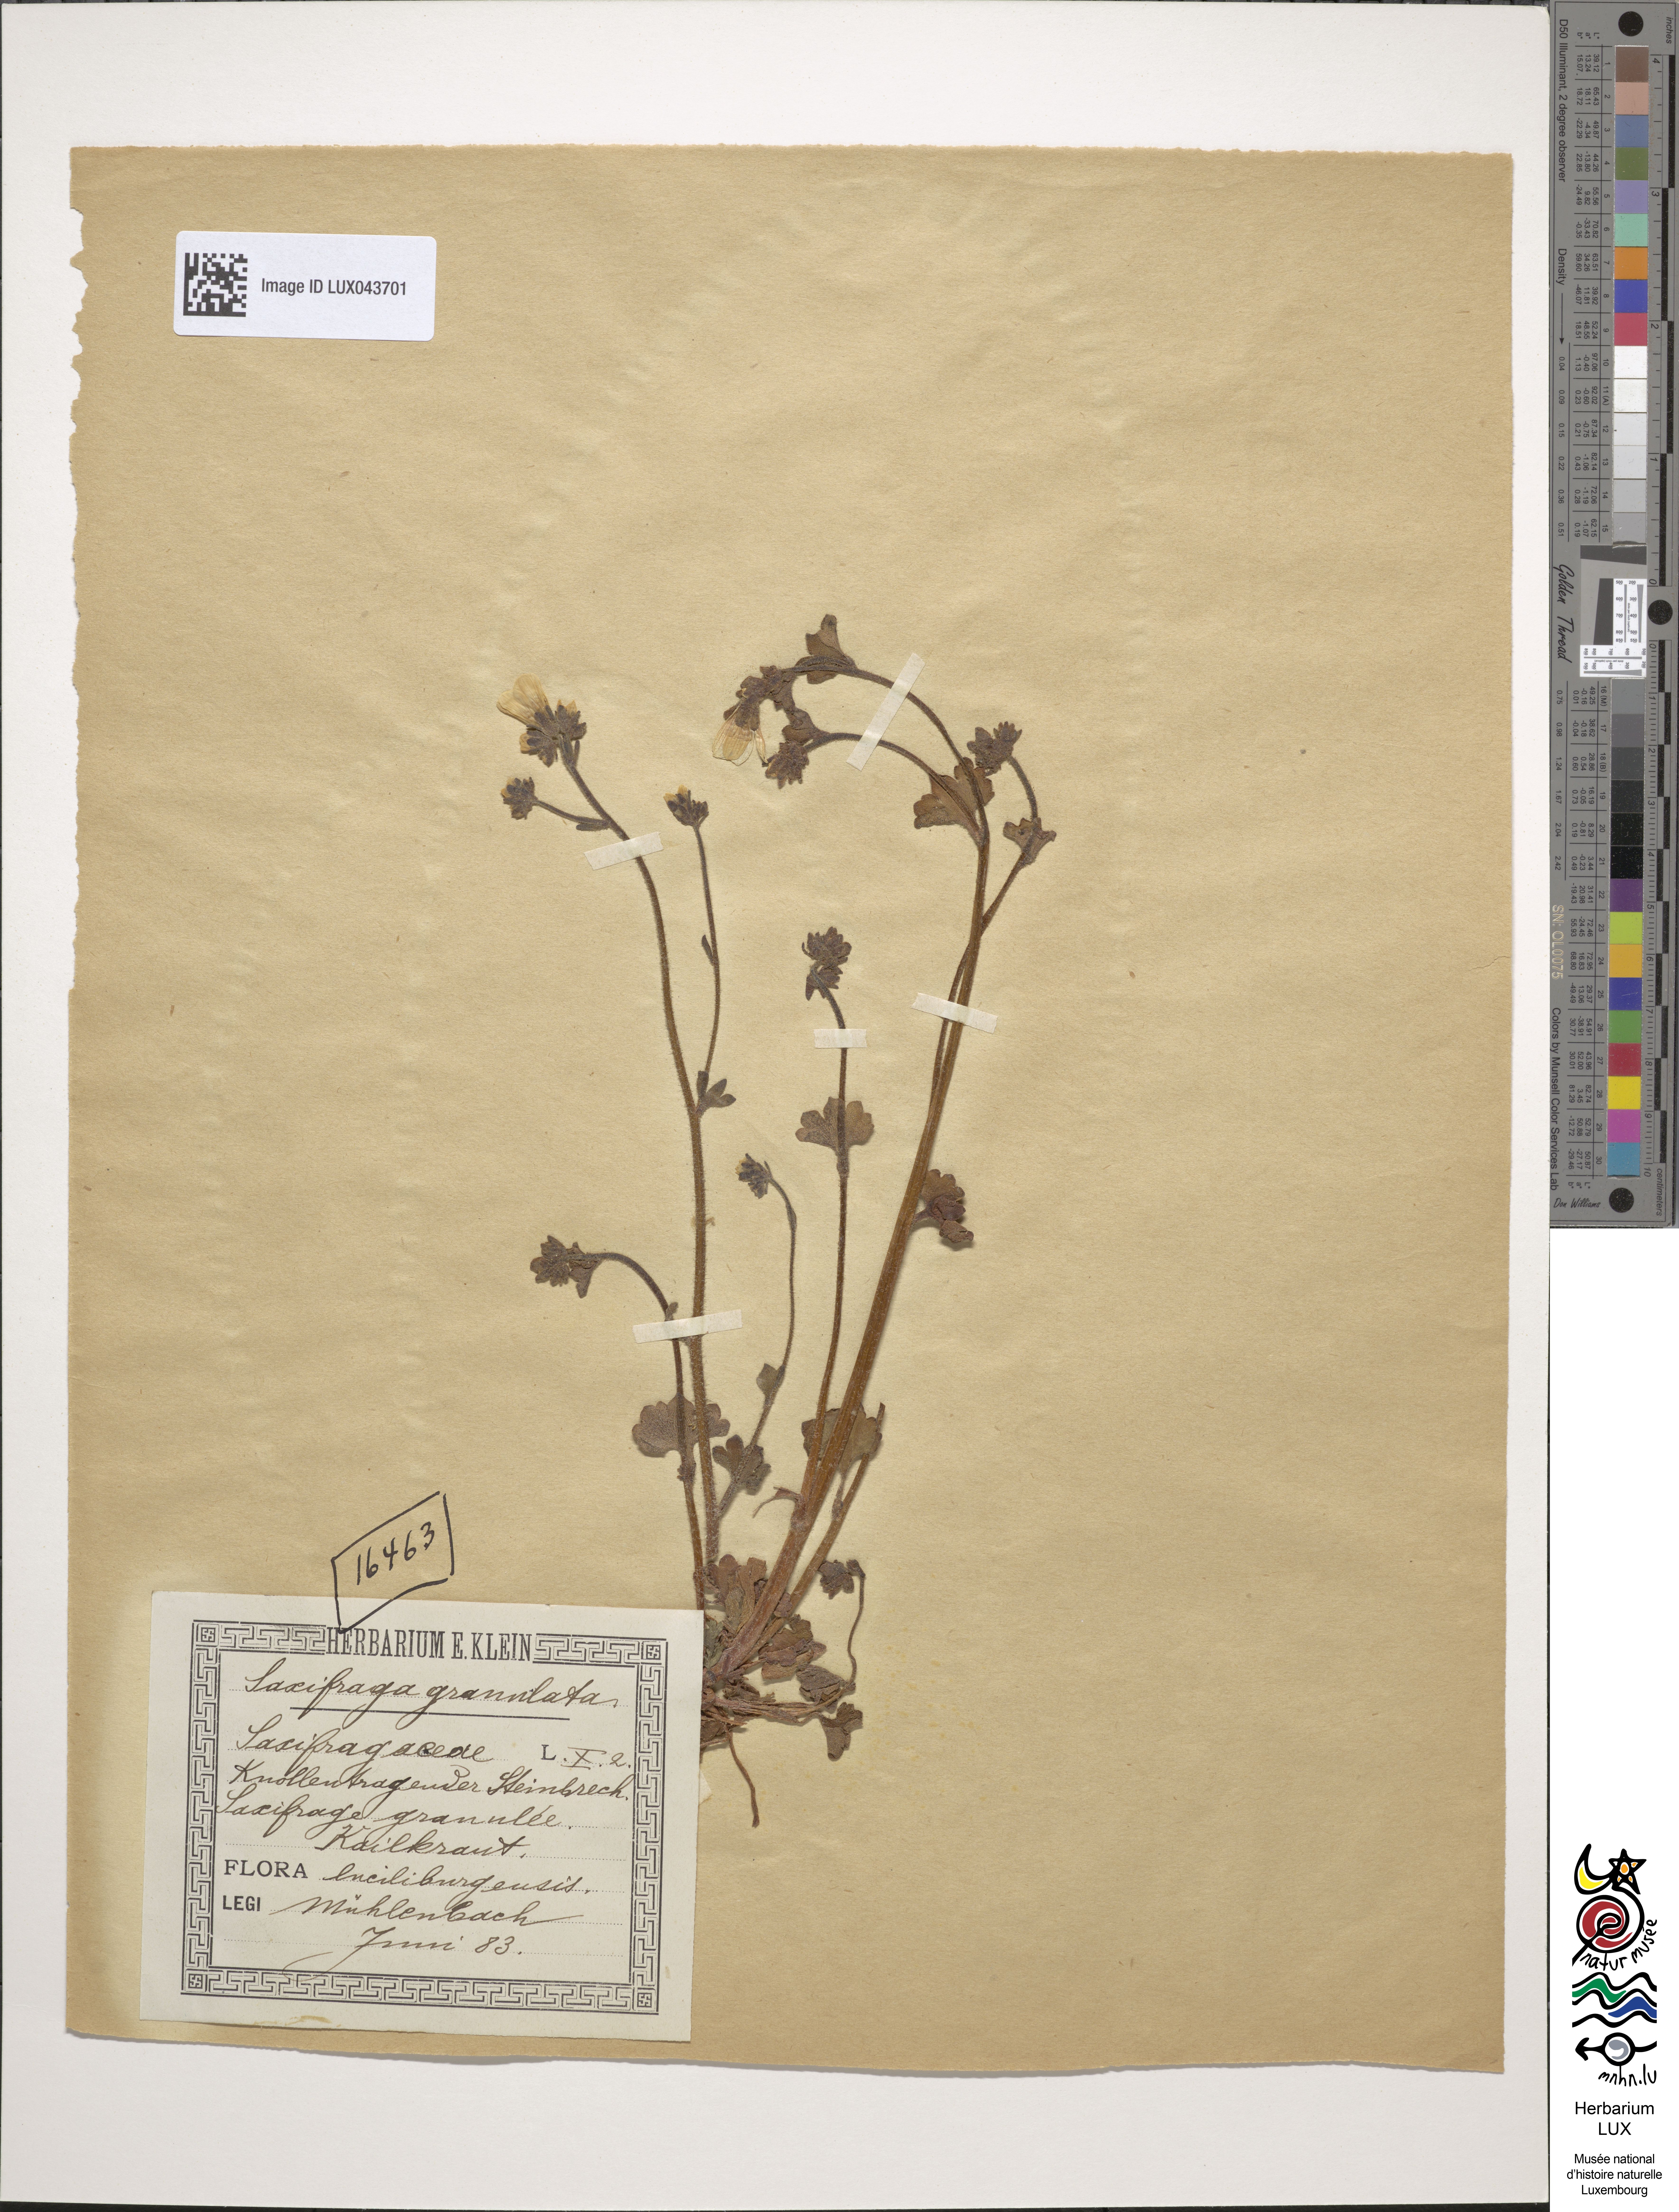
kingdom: Plantae
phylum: Tracheophyta
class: Magnoliopsida
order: Saxifragales
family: Saxifragaceae
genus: Saxifraga
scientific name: Saxifraga granulata
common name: Meadow saxifrage
